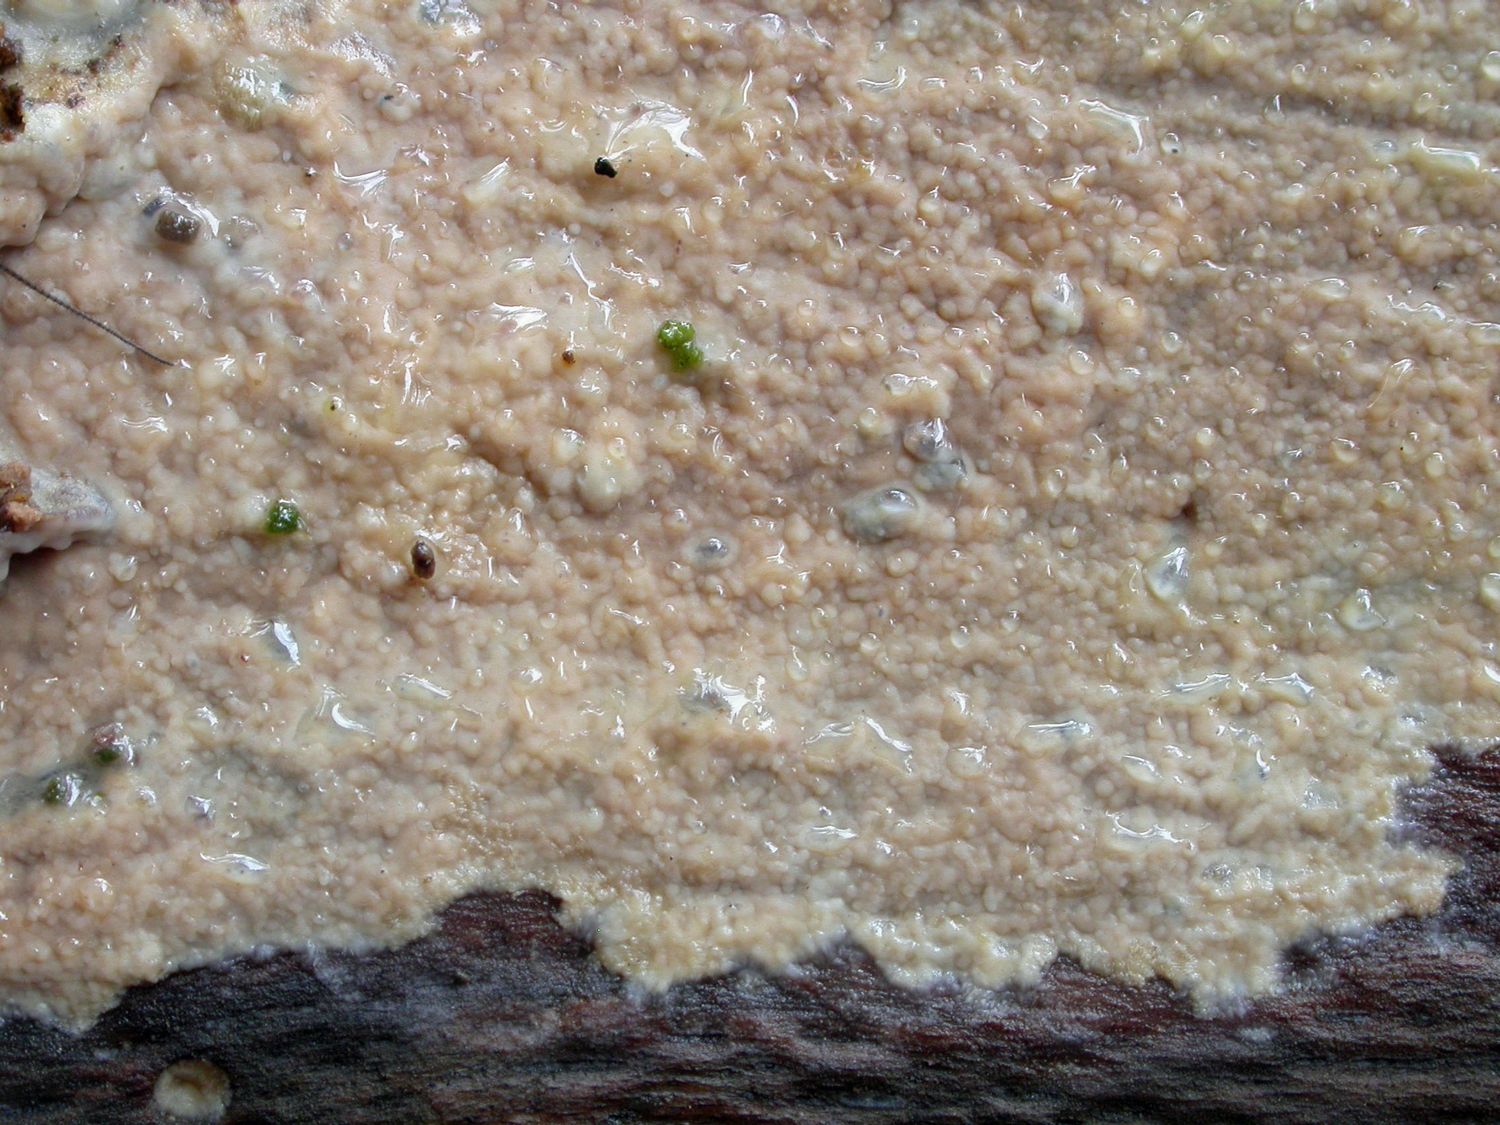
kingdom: Fungi
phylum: Basidiomycota
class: Agaricomycetes
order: Atheliales
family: Atheliaceae
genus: Athelia
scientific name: Athelia epiphylla
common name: almindelig barkhinde
